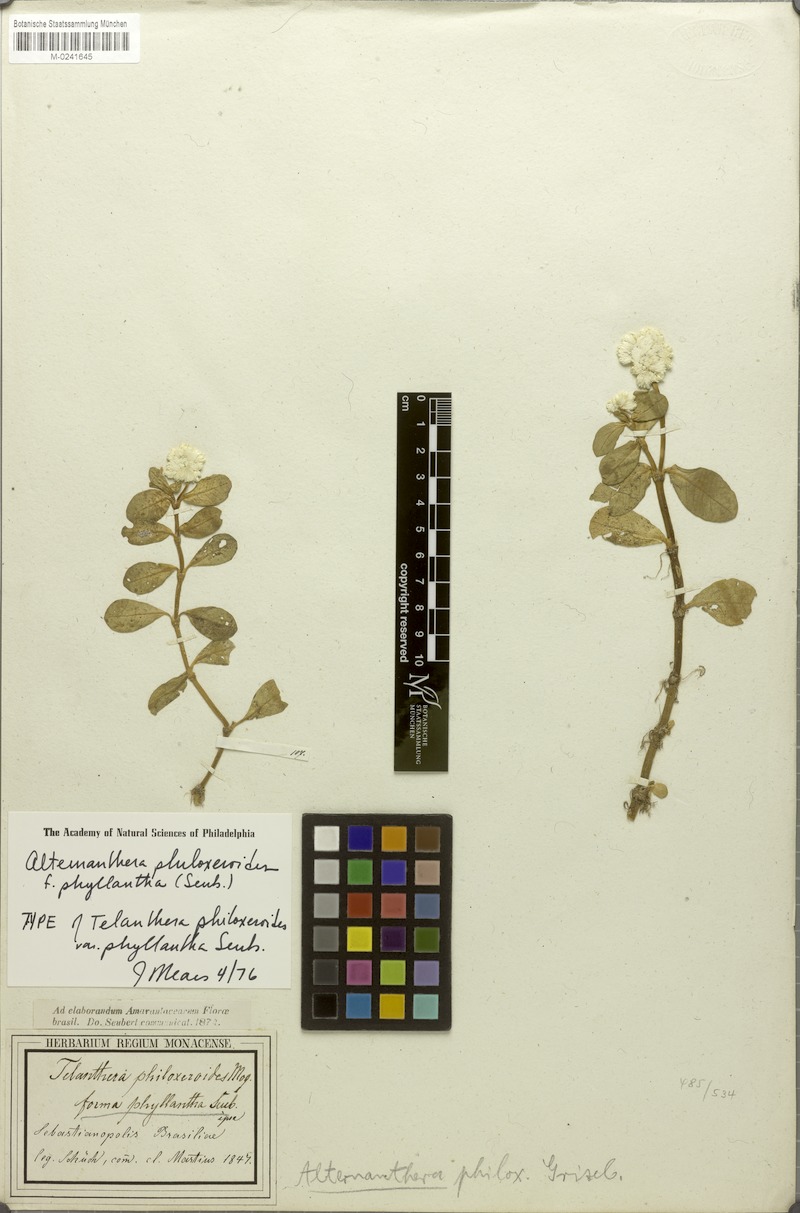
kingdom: Plantae
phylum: Tracheophyta
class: Magnoliopsida
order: Caryophyllales
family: Amaranthaceae
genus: Alternanthera
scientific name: Alternanthera philoxeroides
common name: Alligatorweed
